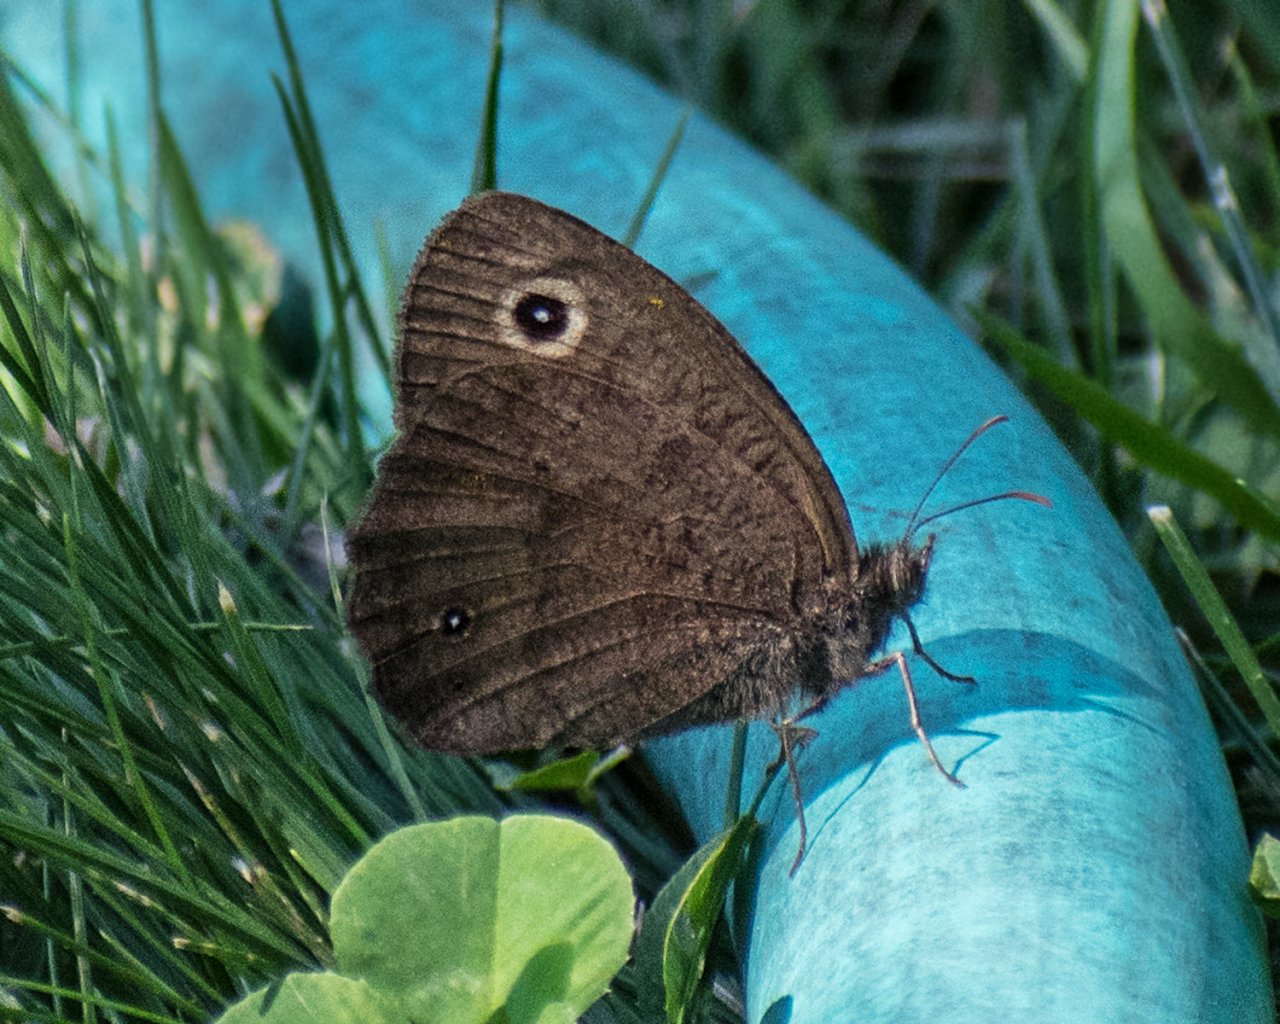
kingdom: Animalia
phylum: Arthropoda
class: Insecta
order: Lepidoptera
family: Nymphalidae
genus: Cercyonis
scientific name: Cercyonis pegala
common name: Common Wood-Nymph
